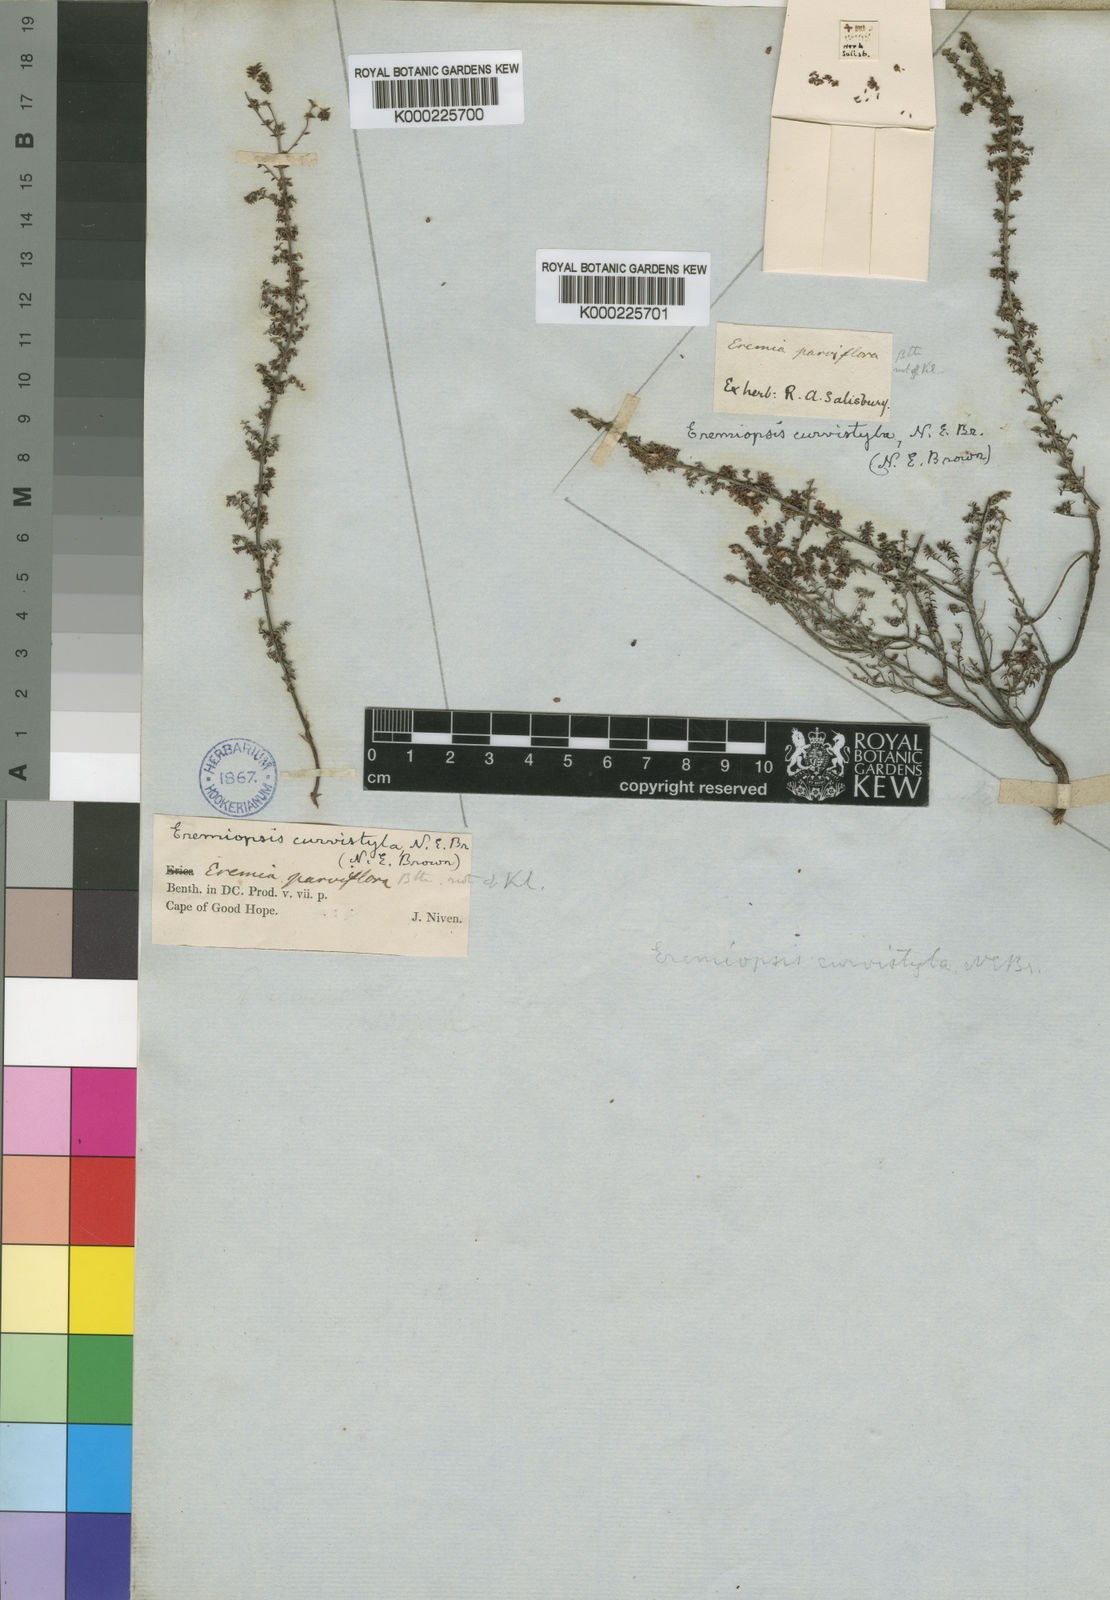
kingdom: Plantae
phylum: Tracheophyta
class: Magnoliopsida
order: Ericales
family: Ericaceae
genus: Erica
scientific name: Erica curvistyla
